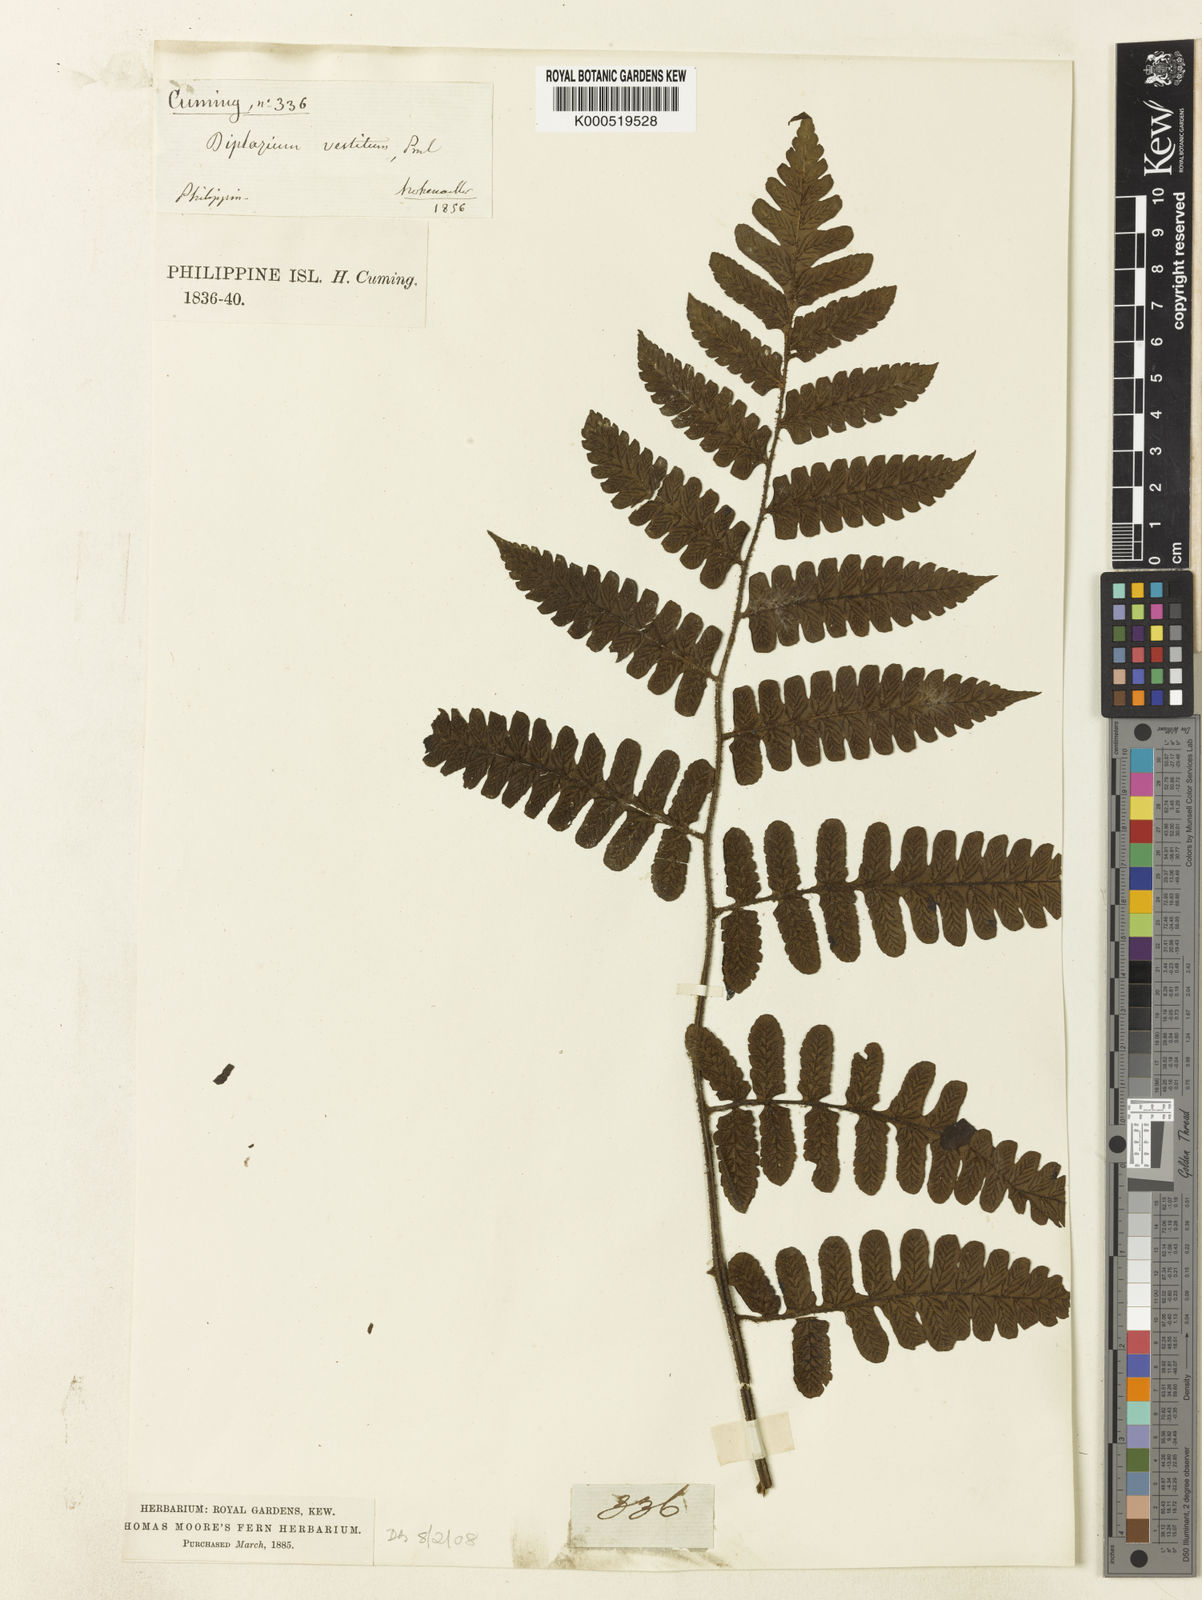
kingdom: Plantae
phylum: Tracheophyta
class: Polypodiopsida
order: Polypodiales
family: Athyriaceae
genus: Diplazium
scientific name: Diplazium vestitum
